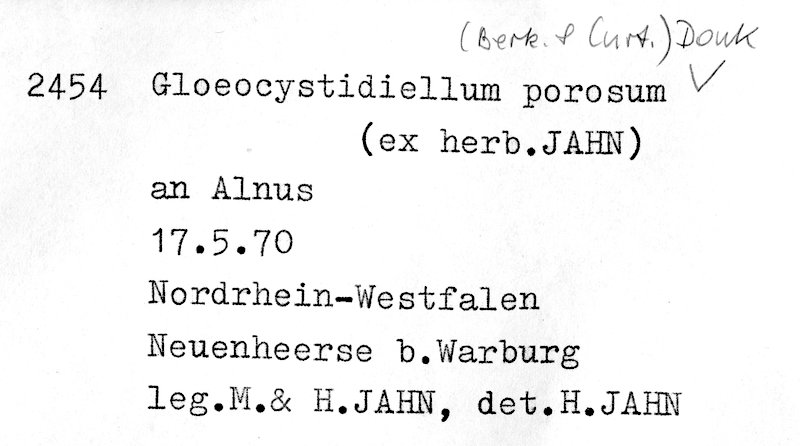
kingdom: Plantae
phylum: Tracheophyta
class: Magnoliopsida
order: Fagales
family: Betulaceae
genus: Alnus
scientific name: Alnus
